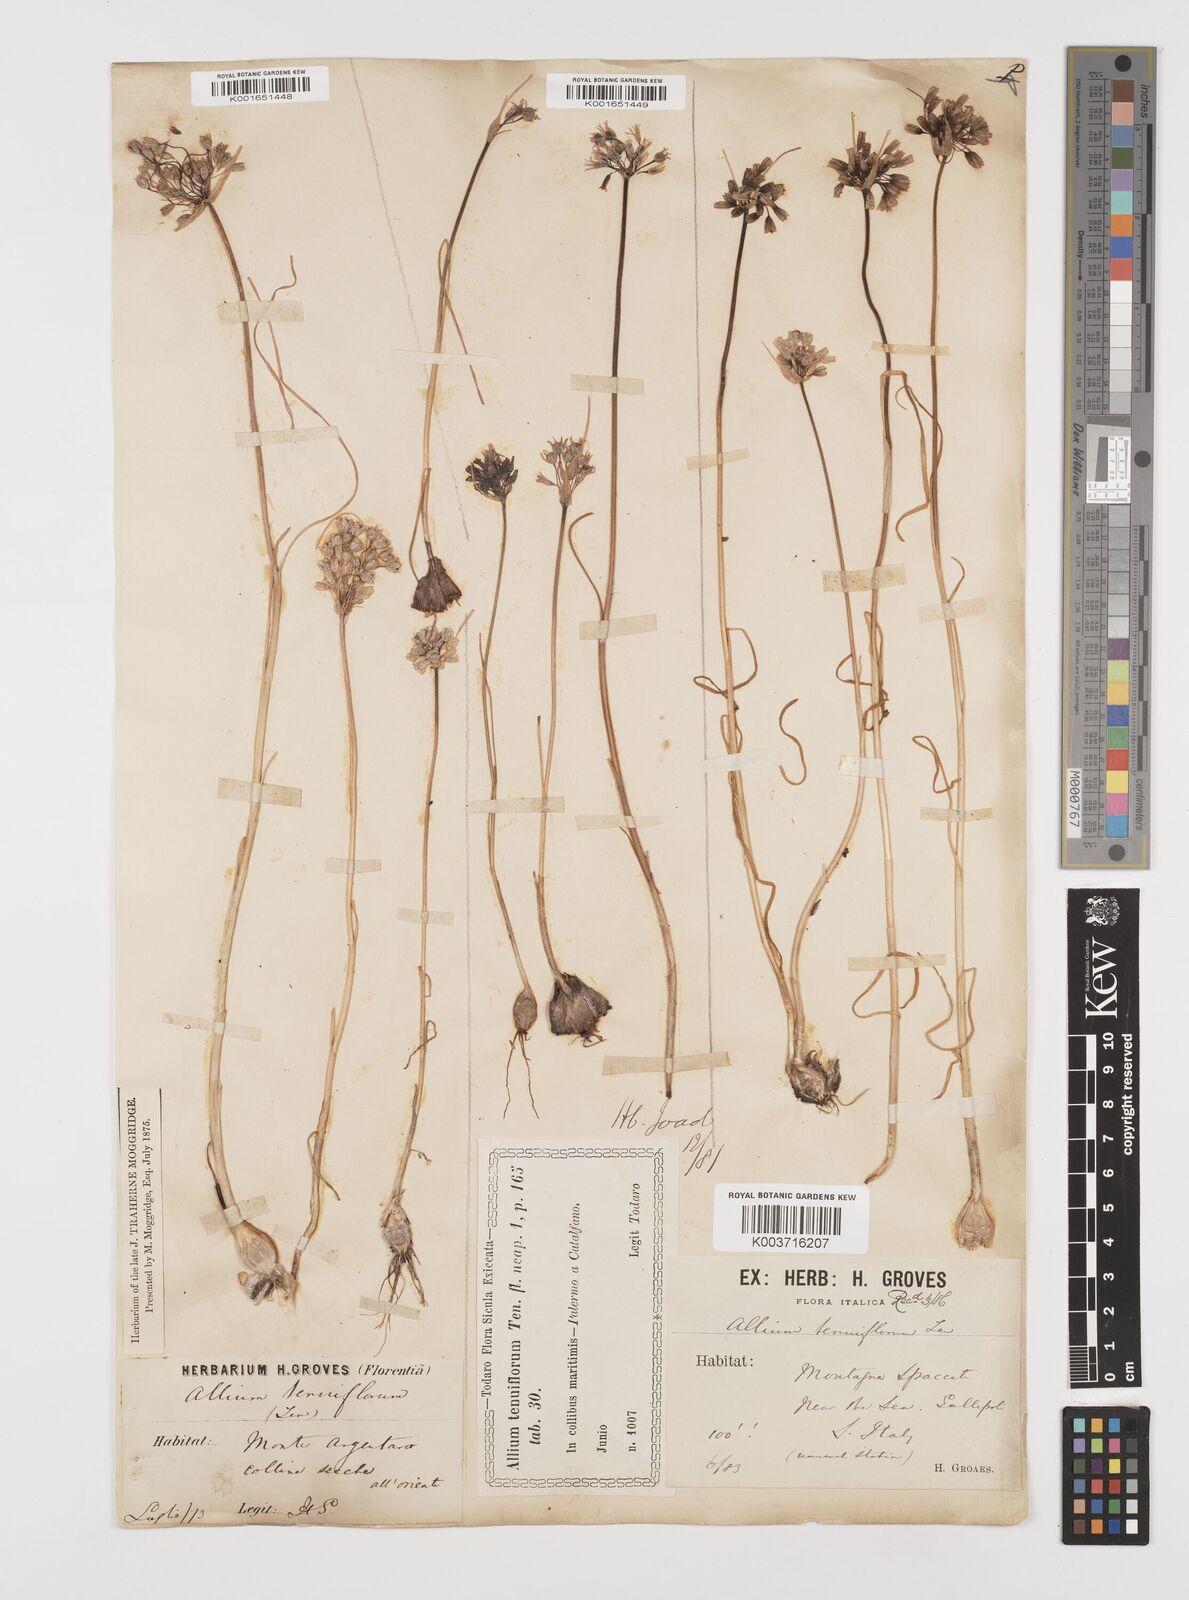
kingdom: Plantae
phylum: Tracheophyta
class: Liliopsida
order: Asparagales
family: Amaryllidaceae
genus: Allium
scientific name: Allium tenuiflorum
